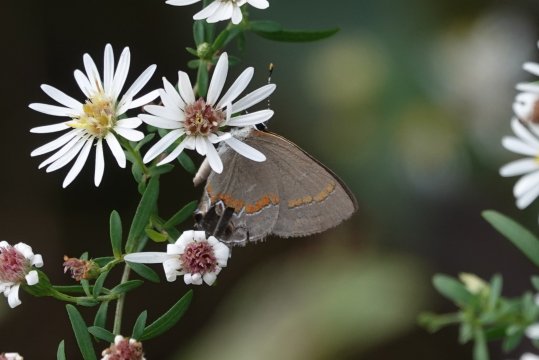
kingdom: Animalia
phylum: Arthropoda
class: Insecta
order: Lepidoptera
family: Lycaenidae
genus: Calycopis
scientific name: Calycopis cecrops
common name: Red-banded Hairstreak
